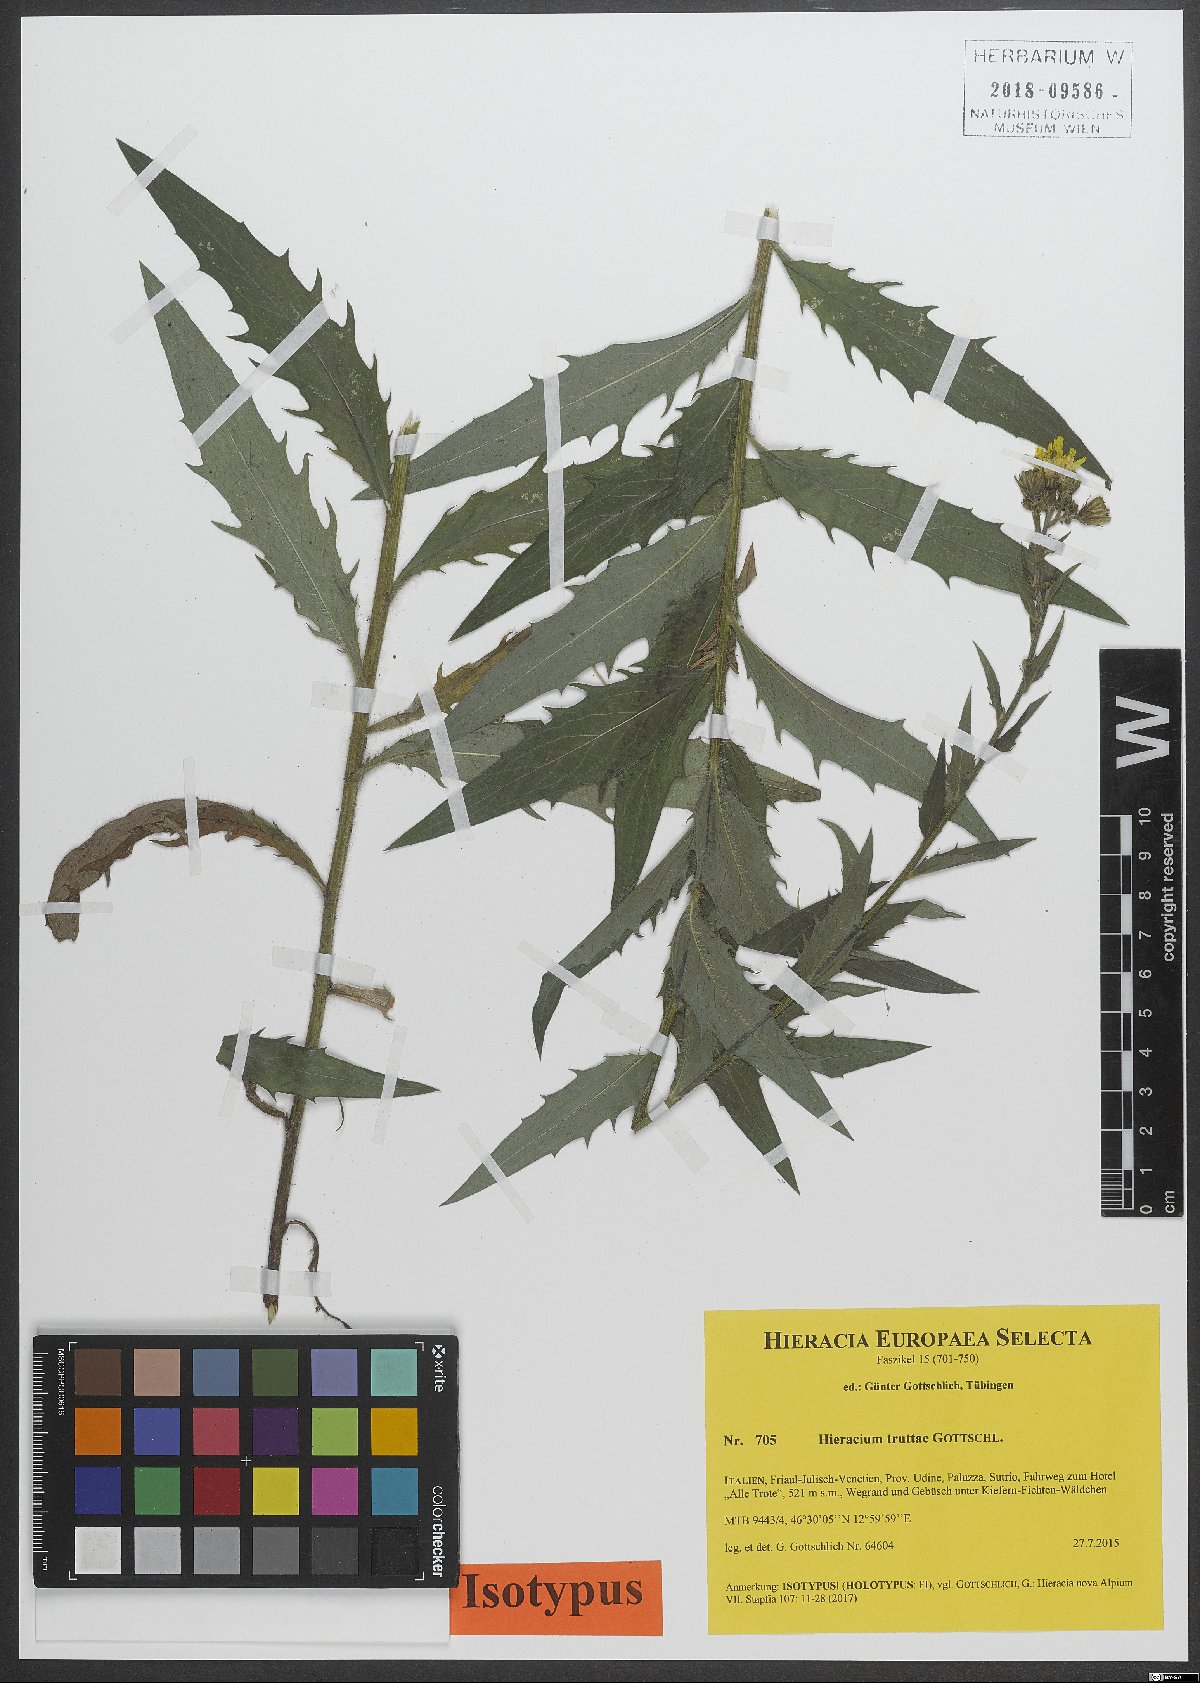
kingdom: Plantae
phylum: Tracheophyta
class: Magnoliopsida
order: Asterales
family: Asteraceae
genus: Hieracium
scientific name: Hieracium truttae
